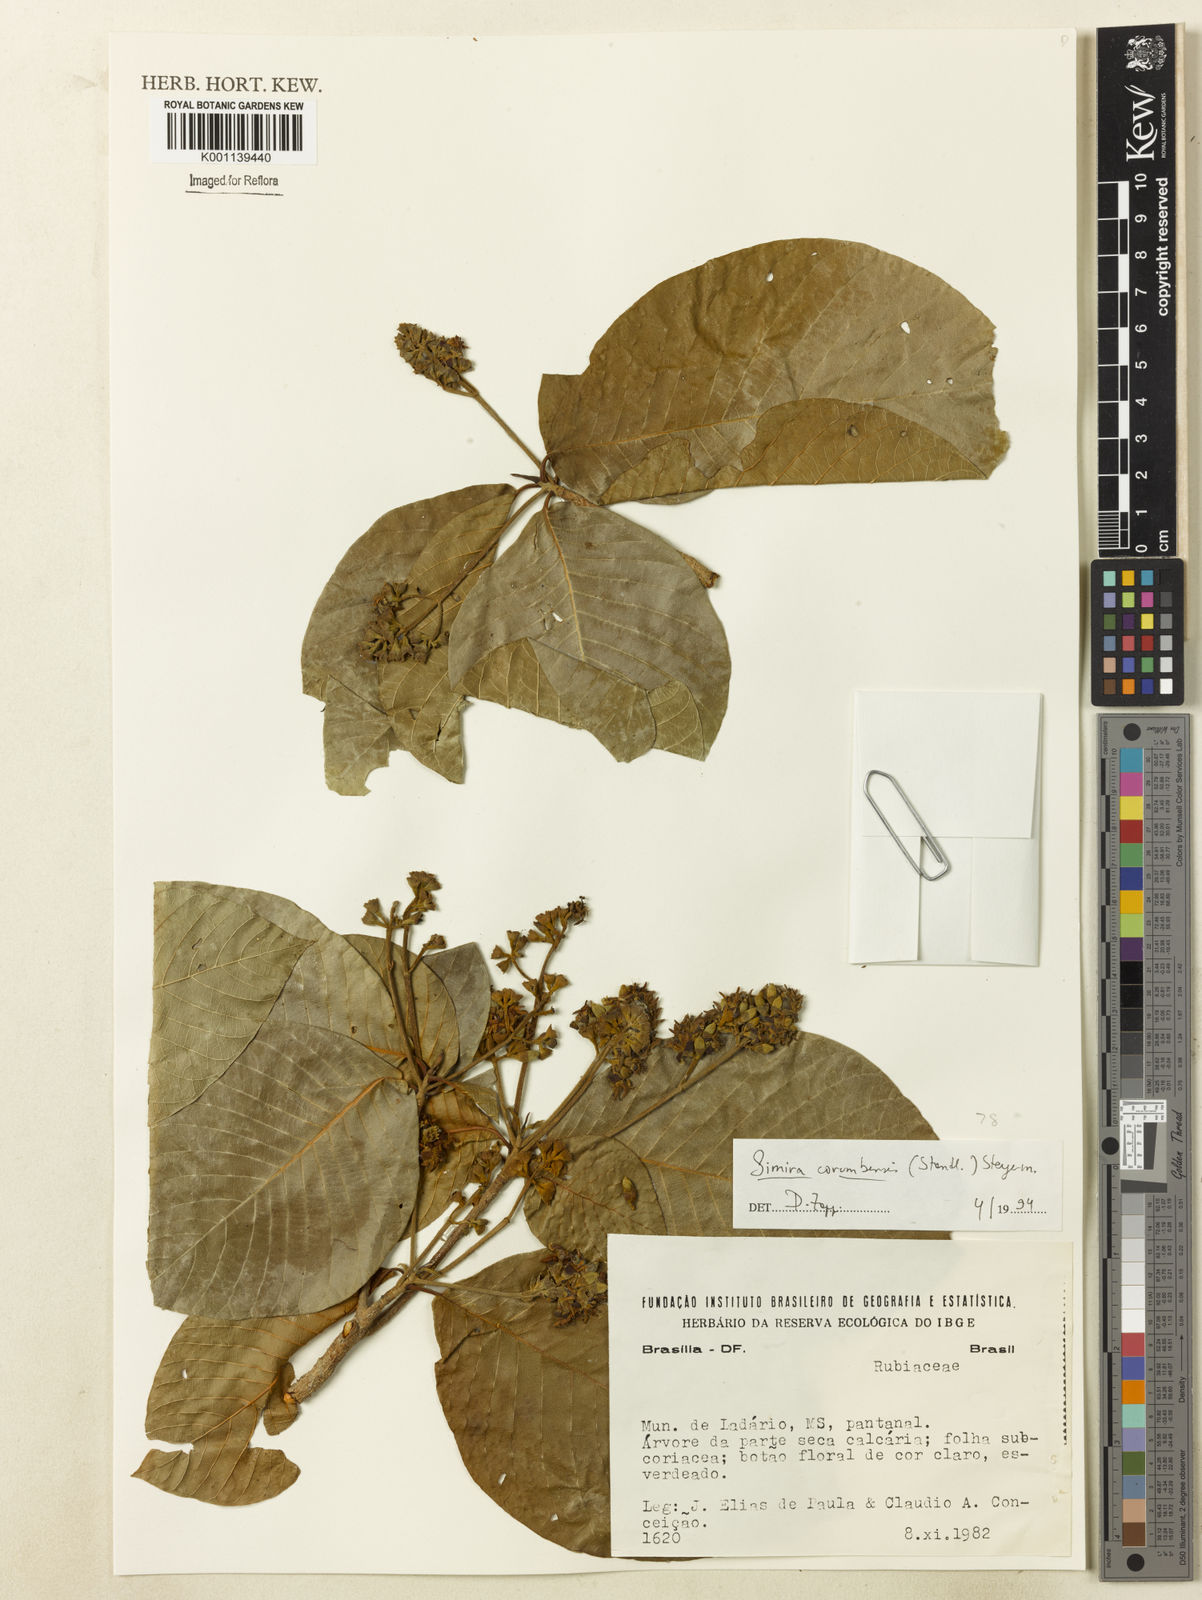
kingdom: Plantae
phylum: Tracheophyta
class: Magnoliopsida
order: Gentianales
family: Rubiaceae
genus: Simira
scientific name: Simira corumbensis
